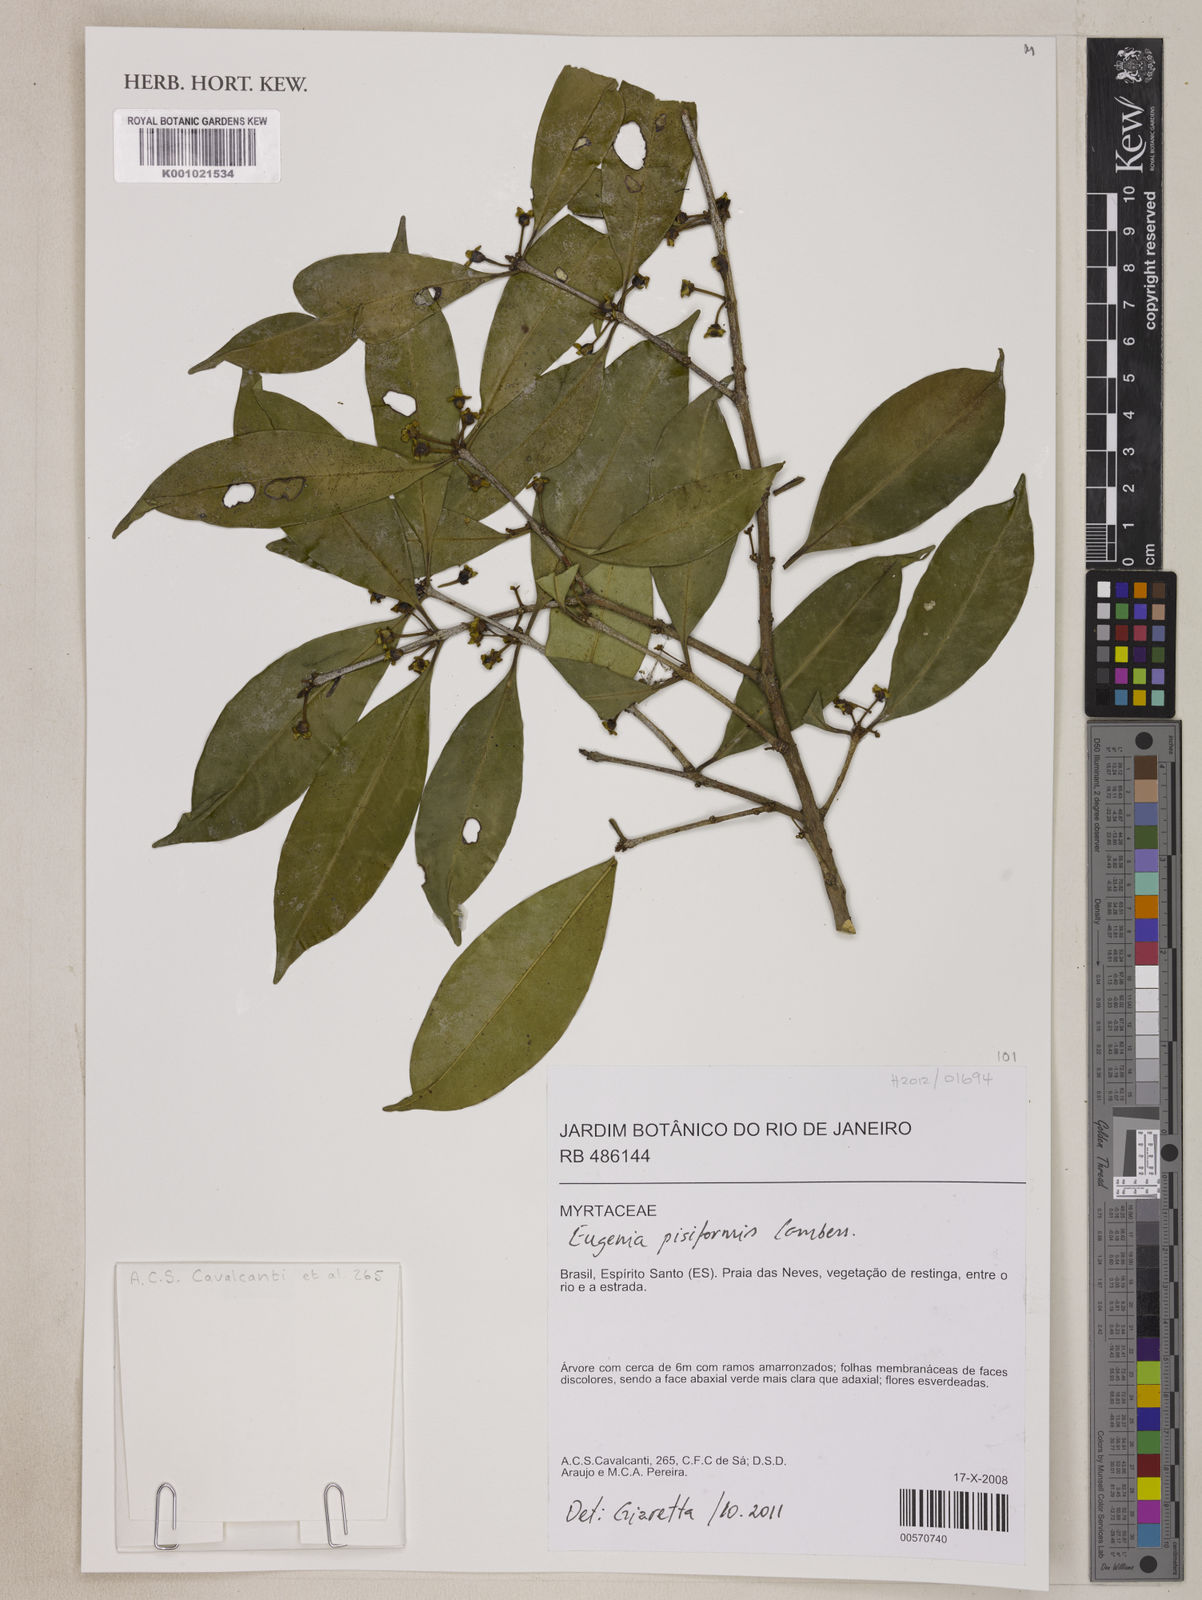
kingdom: Plantae
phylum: Tracheophyta
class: Magnoliopsida
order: Myrtales
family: Myrtaceae
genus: Eugenia
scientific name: Eugenia pisiformis
